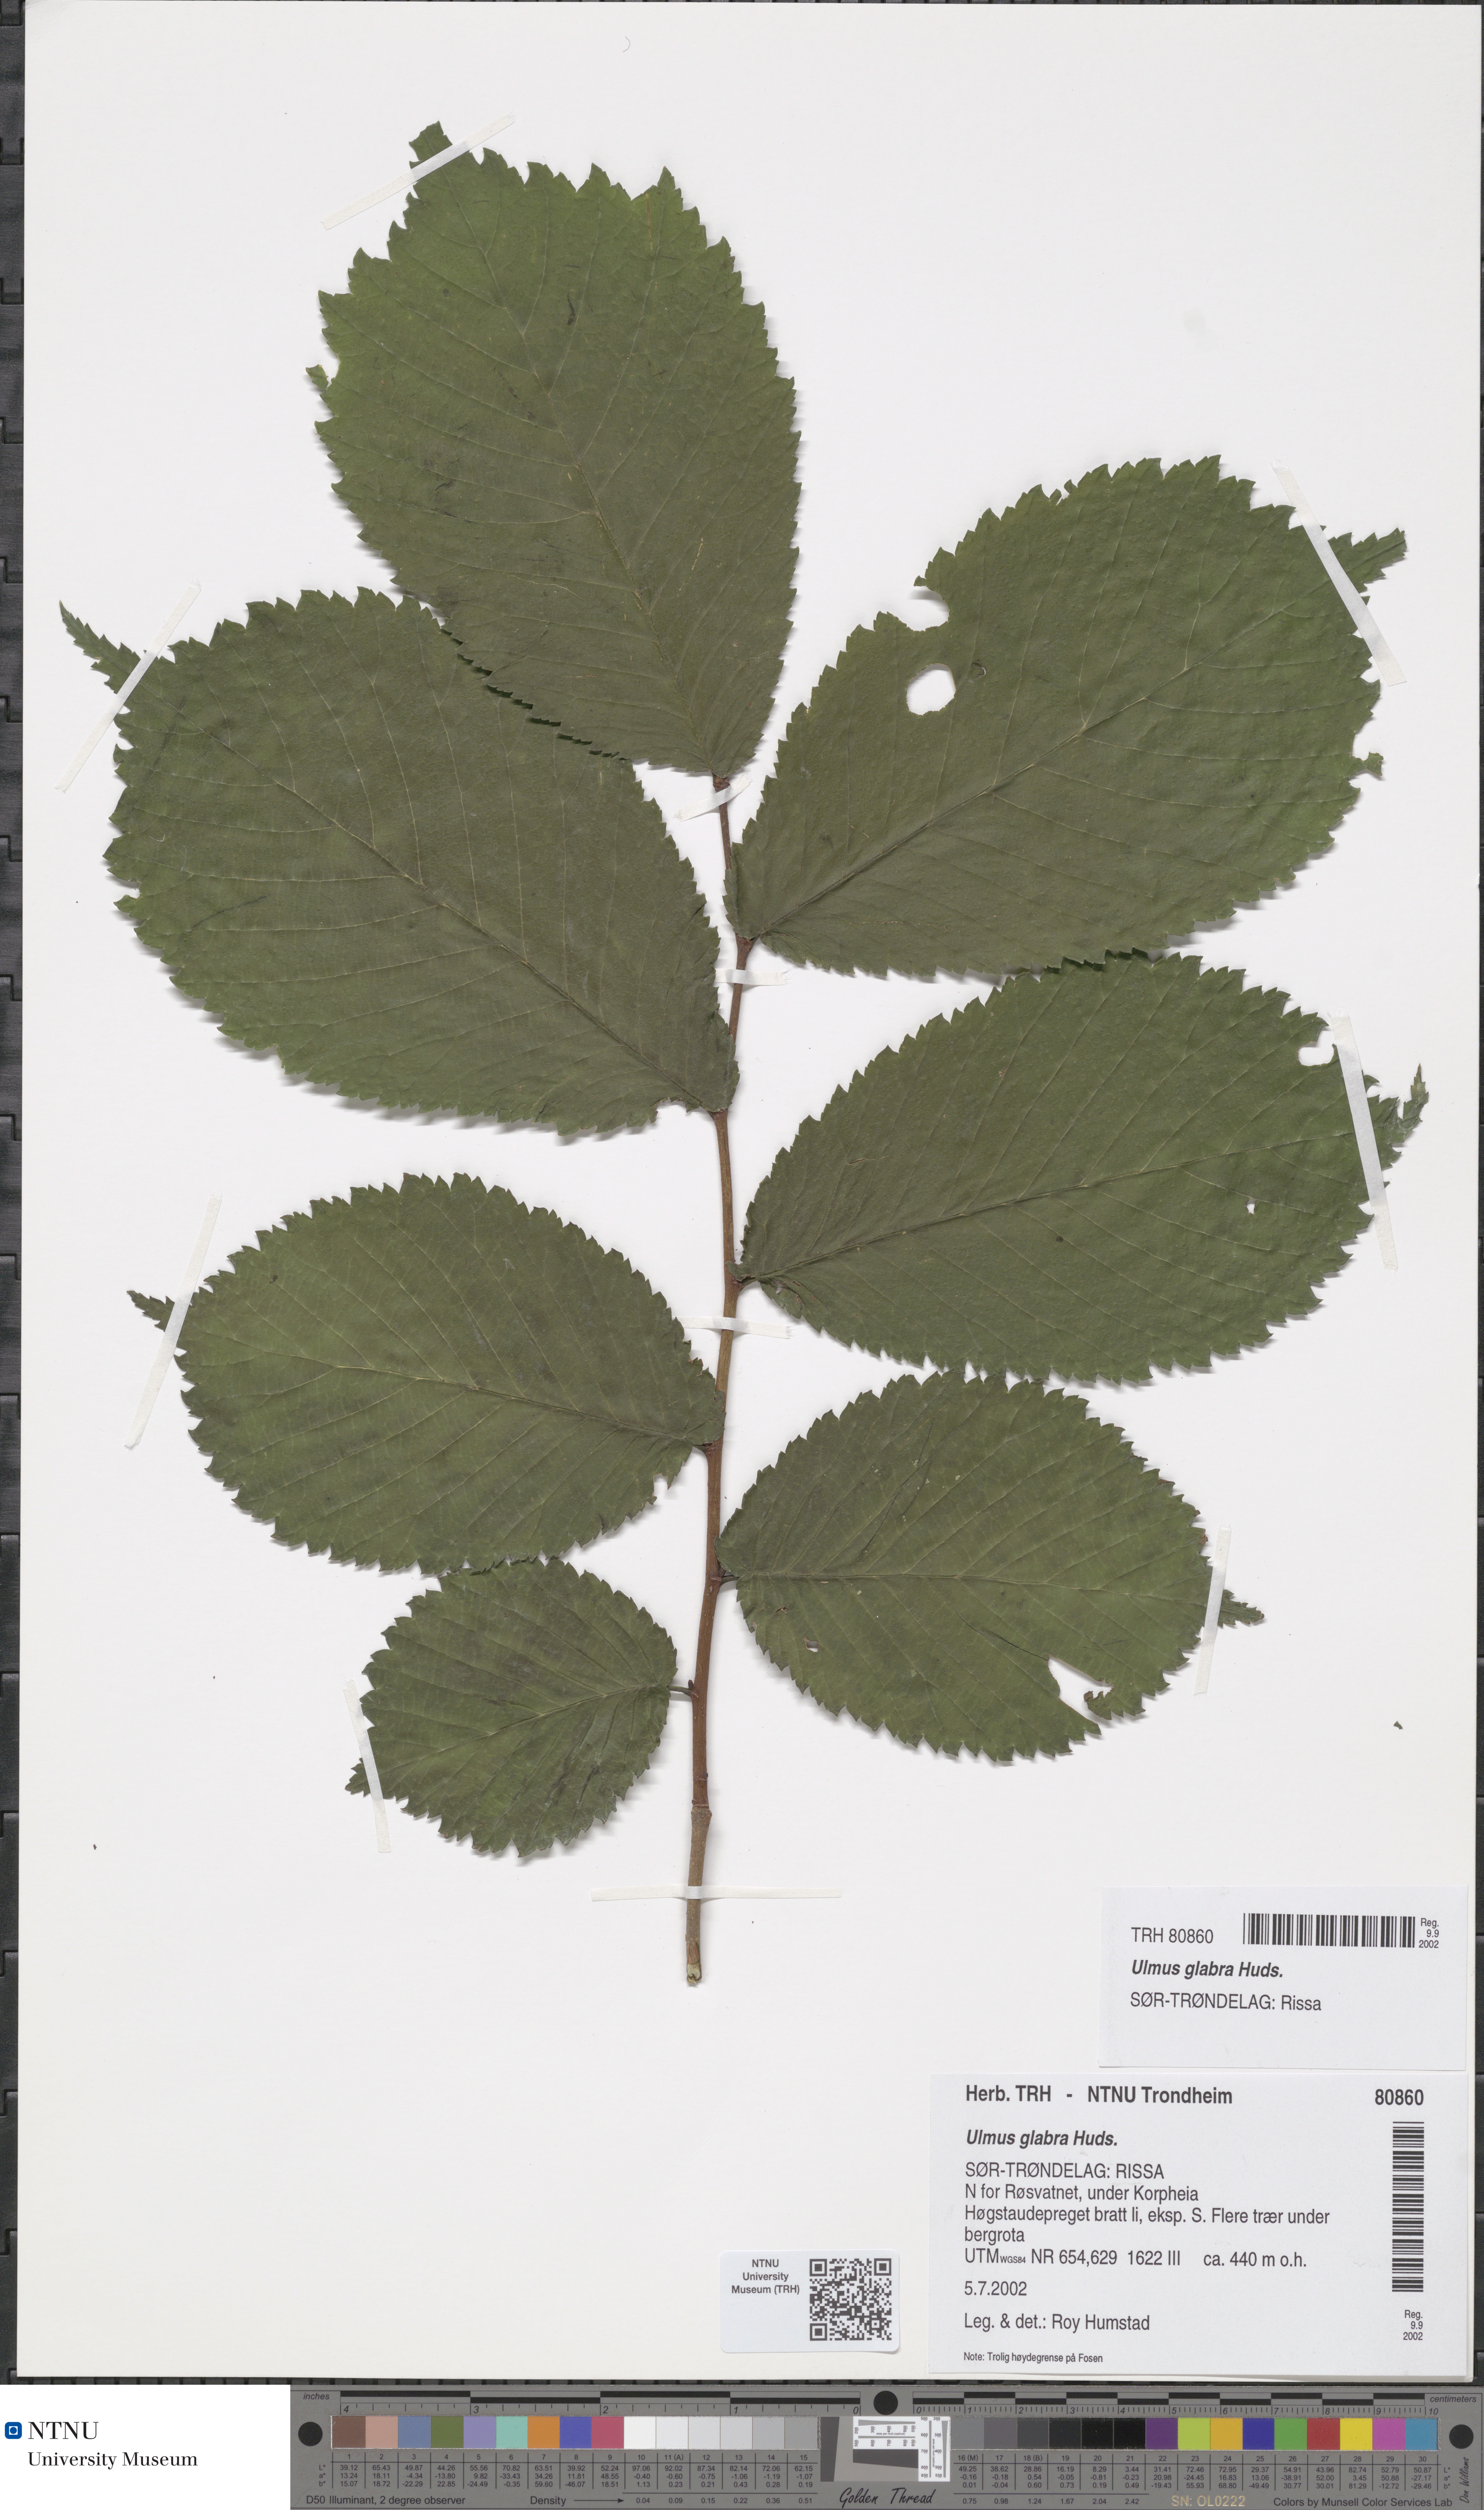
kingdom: Plantae
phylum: Tracheophyta
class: Magnoliopsida
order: Rosales
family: Ulmaceae
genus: Ulmus
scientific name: Ulmus glabra
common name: Wych elm
